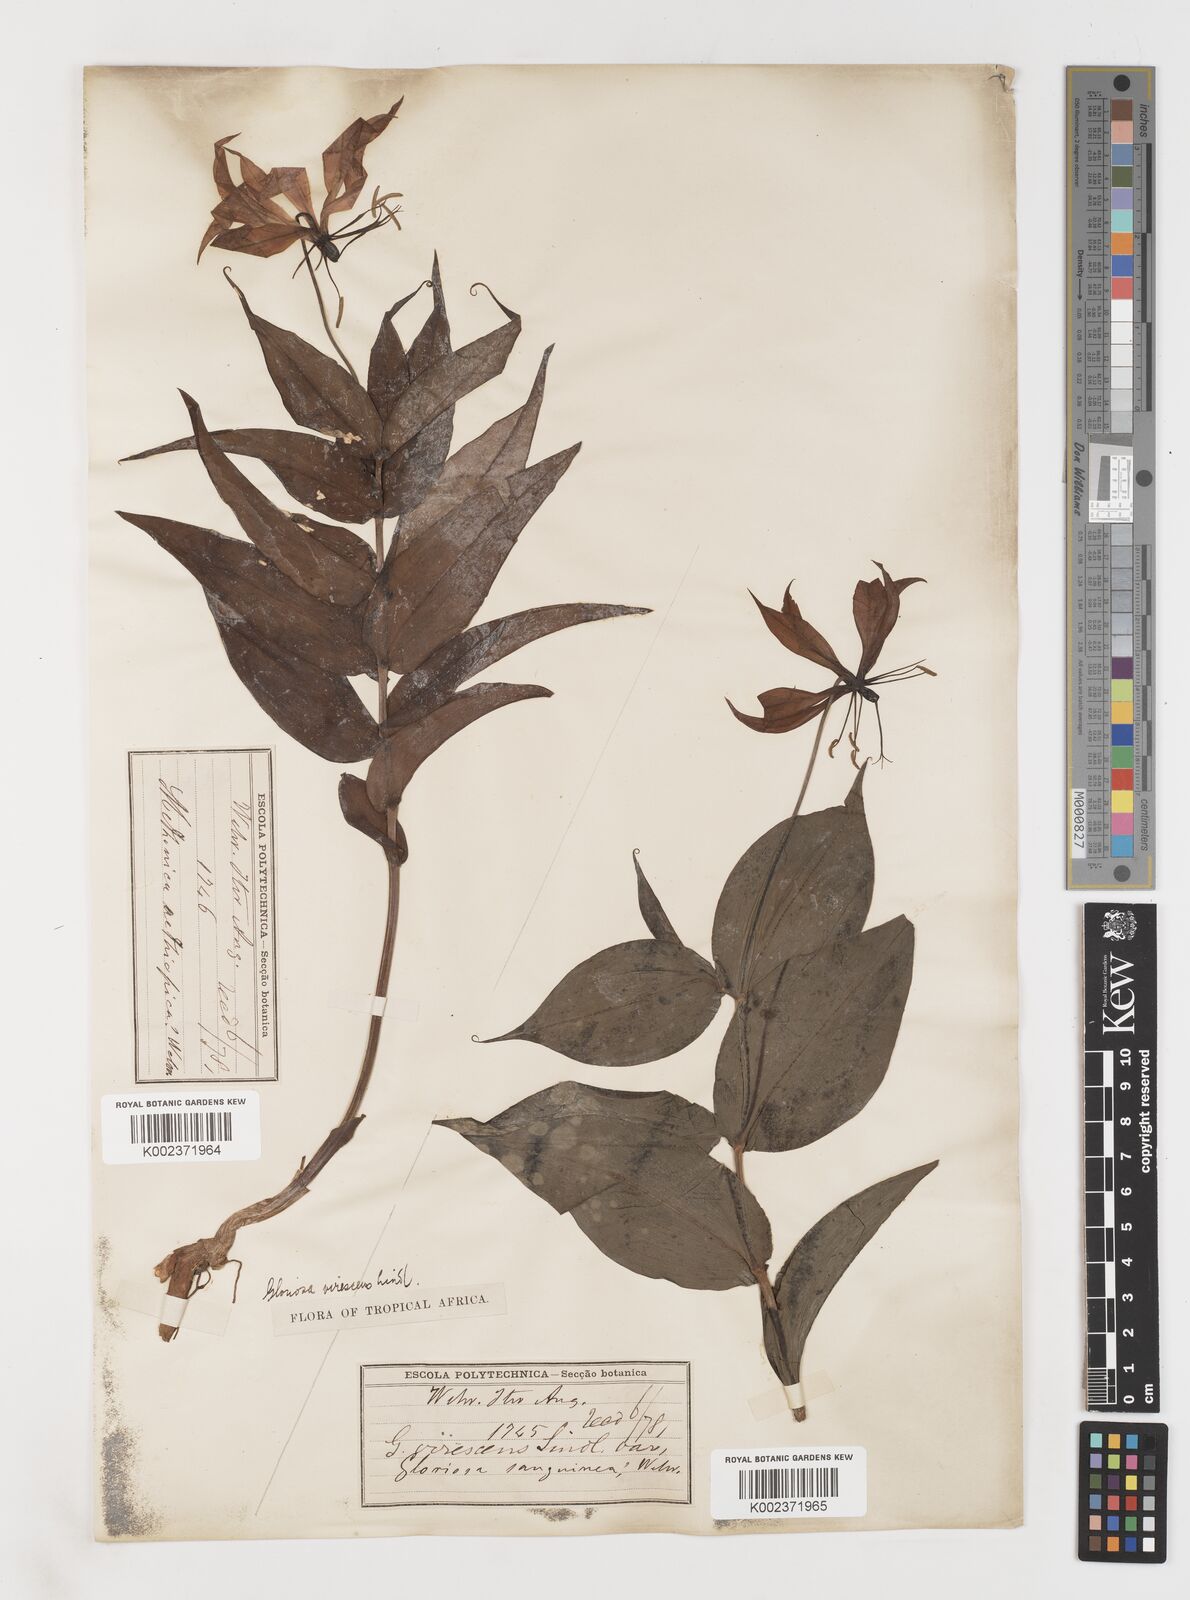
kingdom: Plantae
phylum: Tracheophyta
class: Liliopsida
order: Liliales
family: Colchicaceae
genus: Gloriosa
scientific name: Gloriosa simplex
